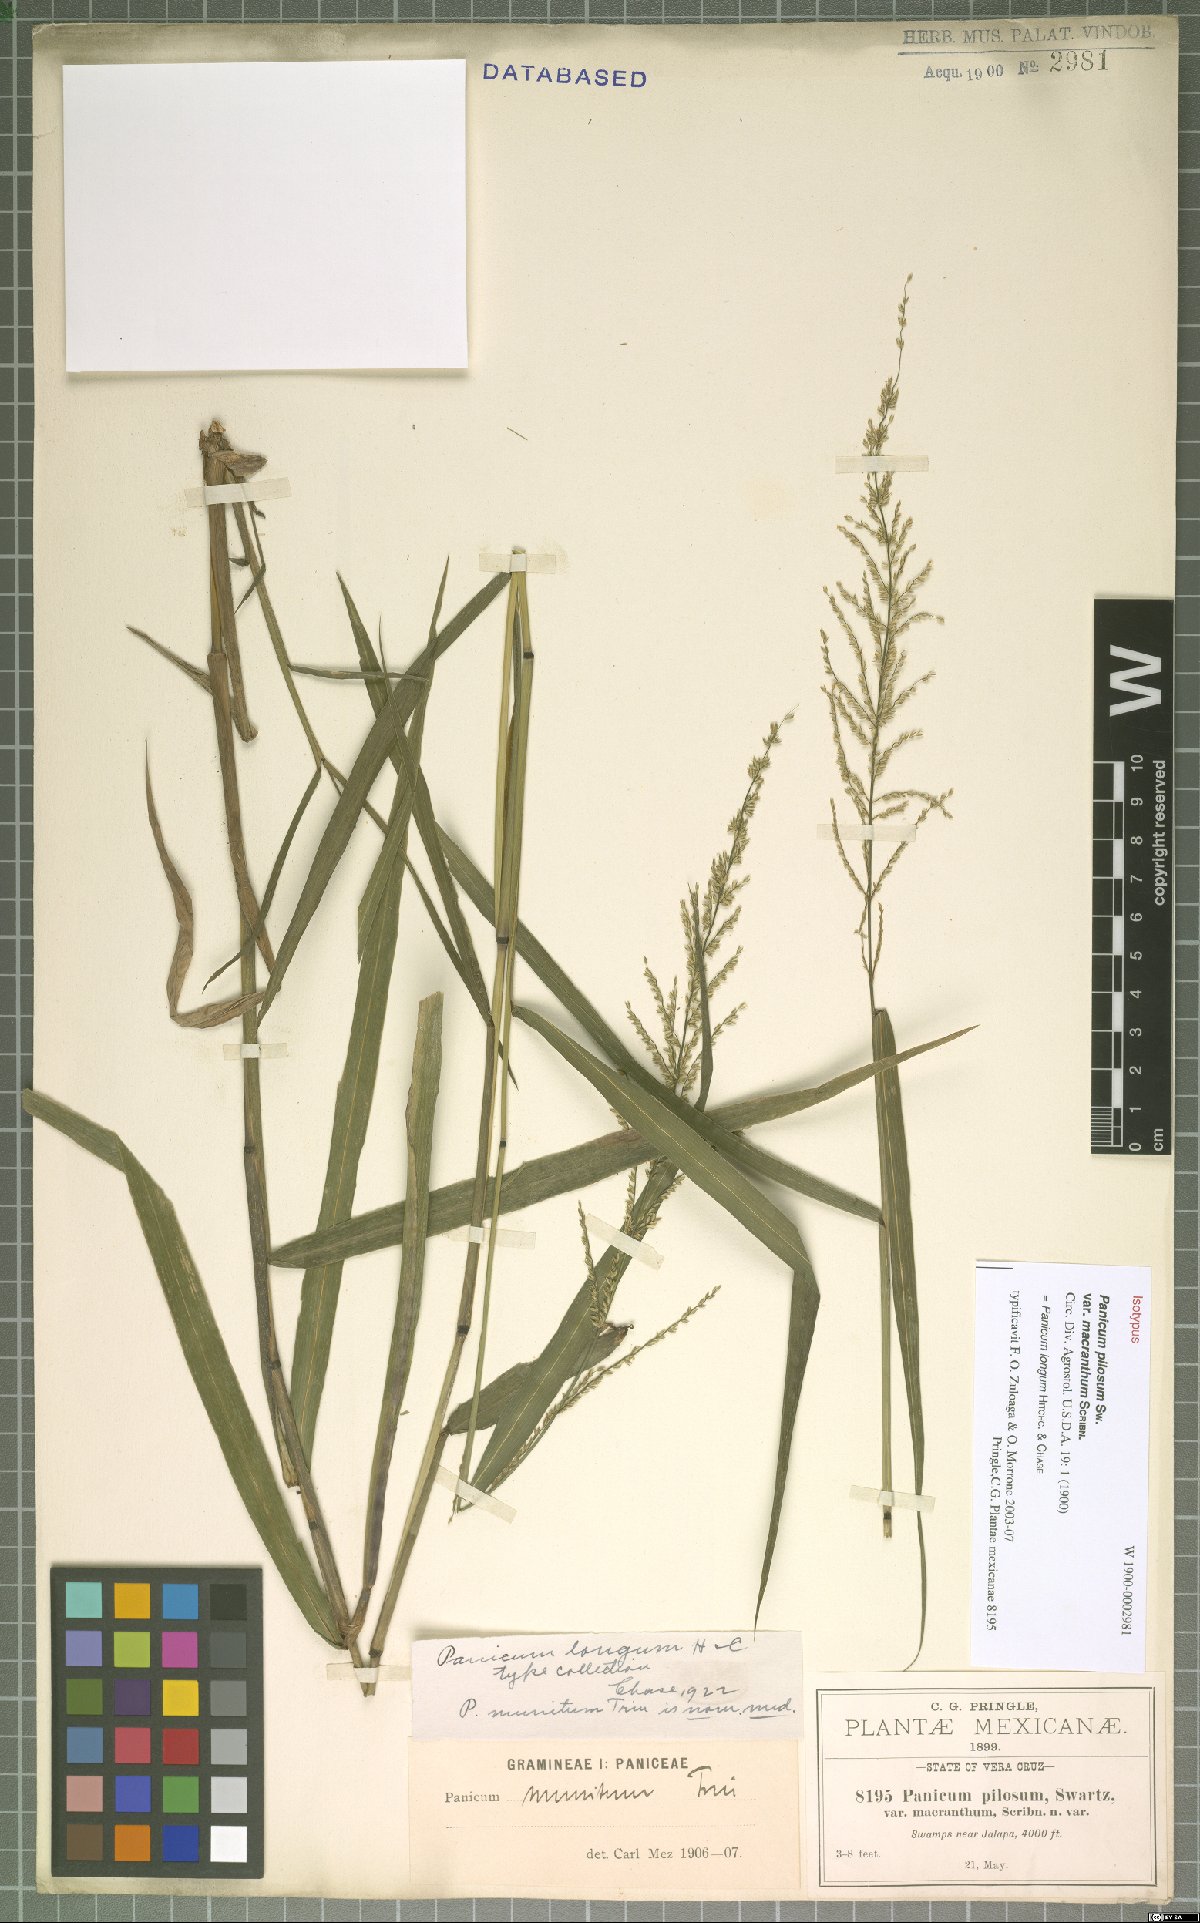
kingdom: Plantae
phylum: Tracheophyta
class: Liliopsida
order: Poales
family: Poaceae
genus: Hymenachne
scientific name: Hymenachne longa
